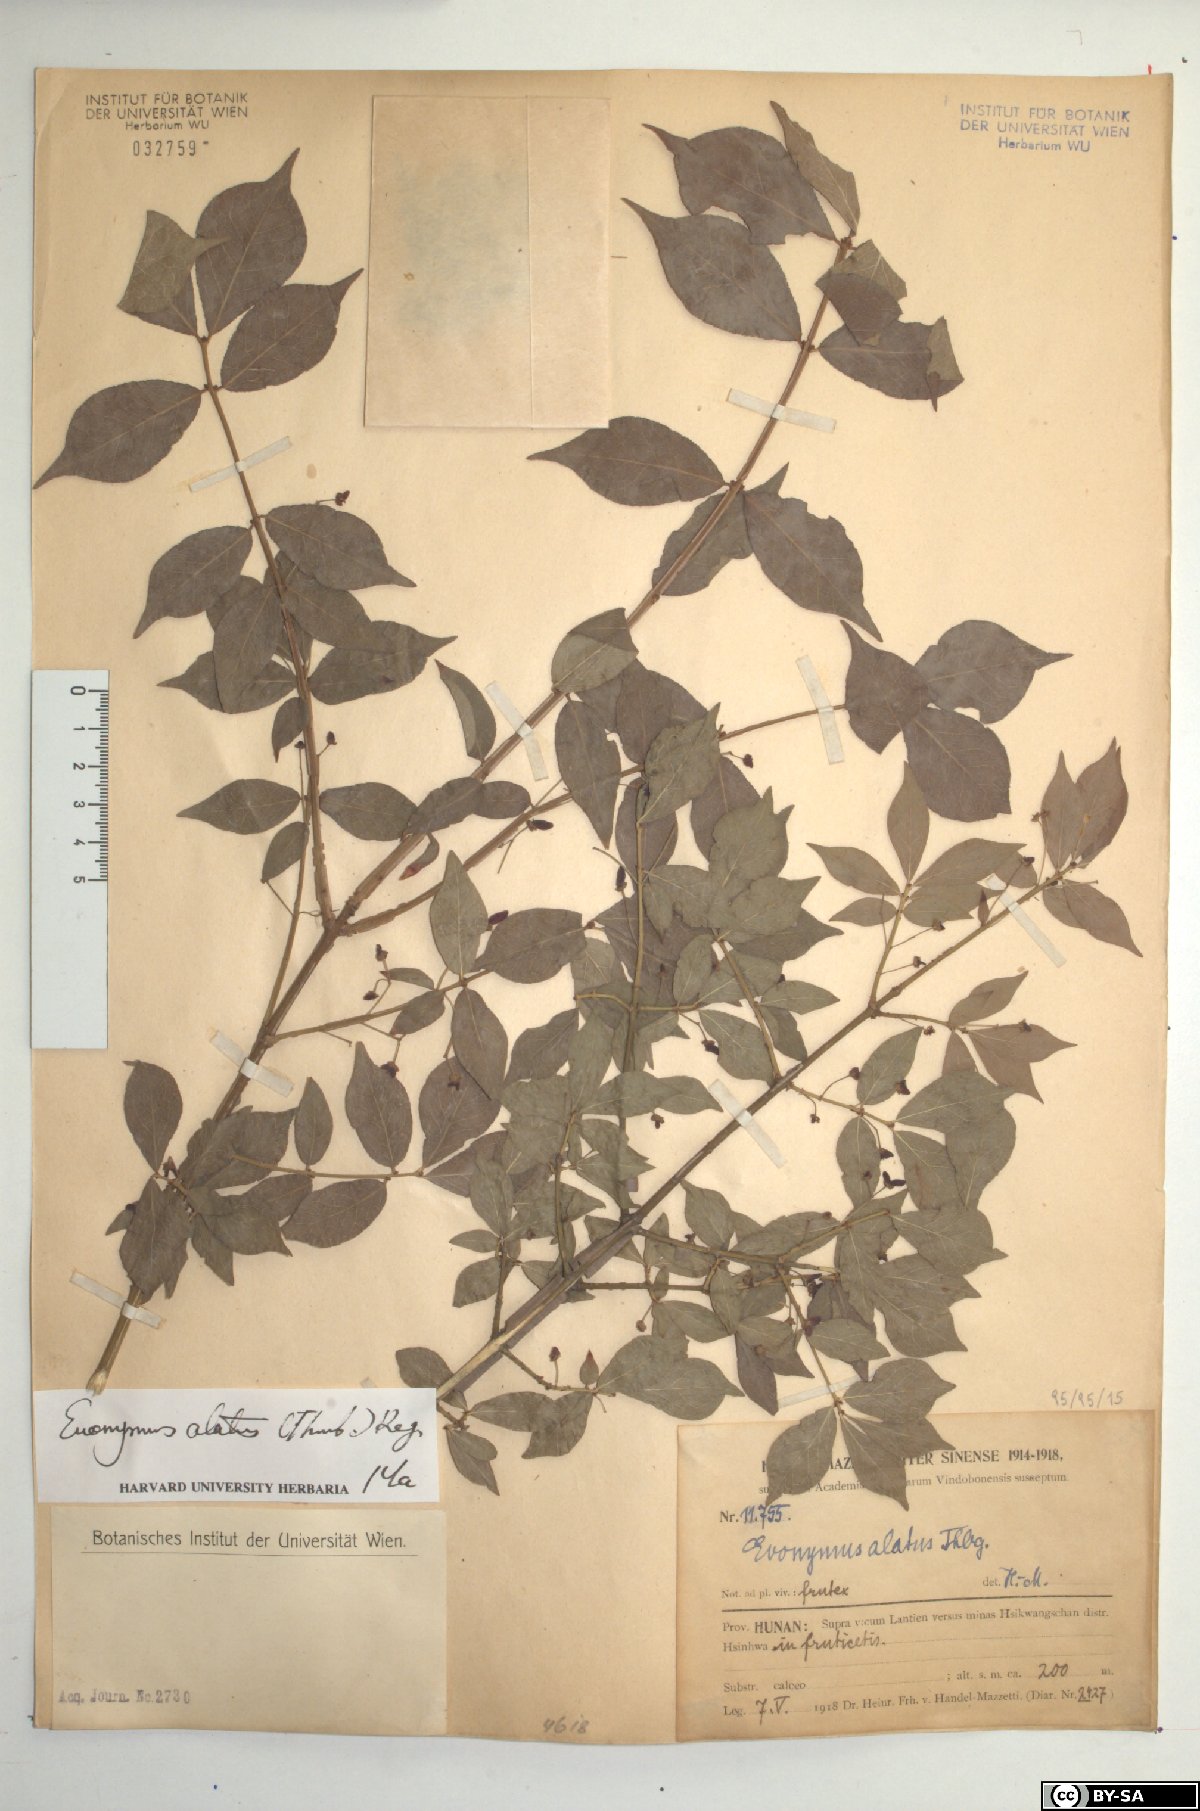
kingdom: Plantae
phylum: Tracheophyta
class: Magnoliopsida
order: Celastrales
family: Celastraceae
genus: Euonymus
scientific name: Euonymus alatus
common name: Winged euonymus
